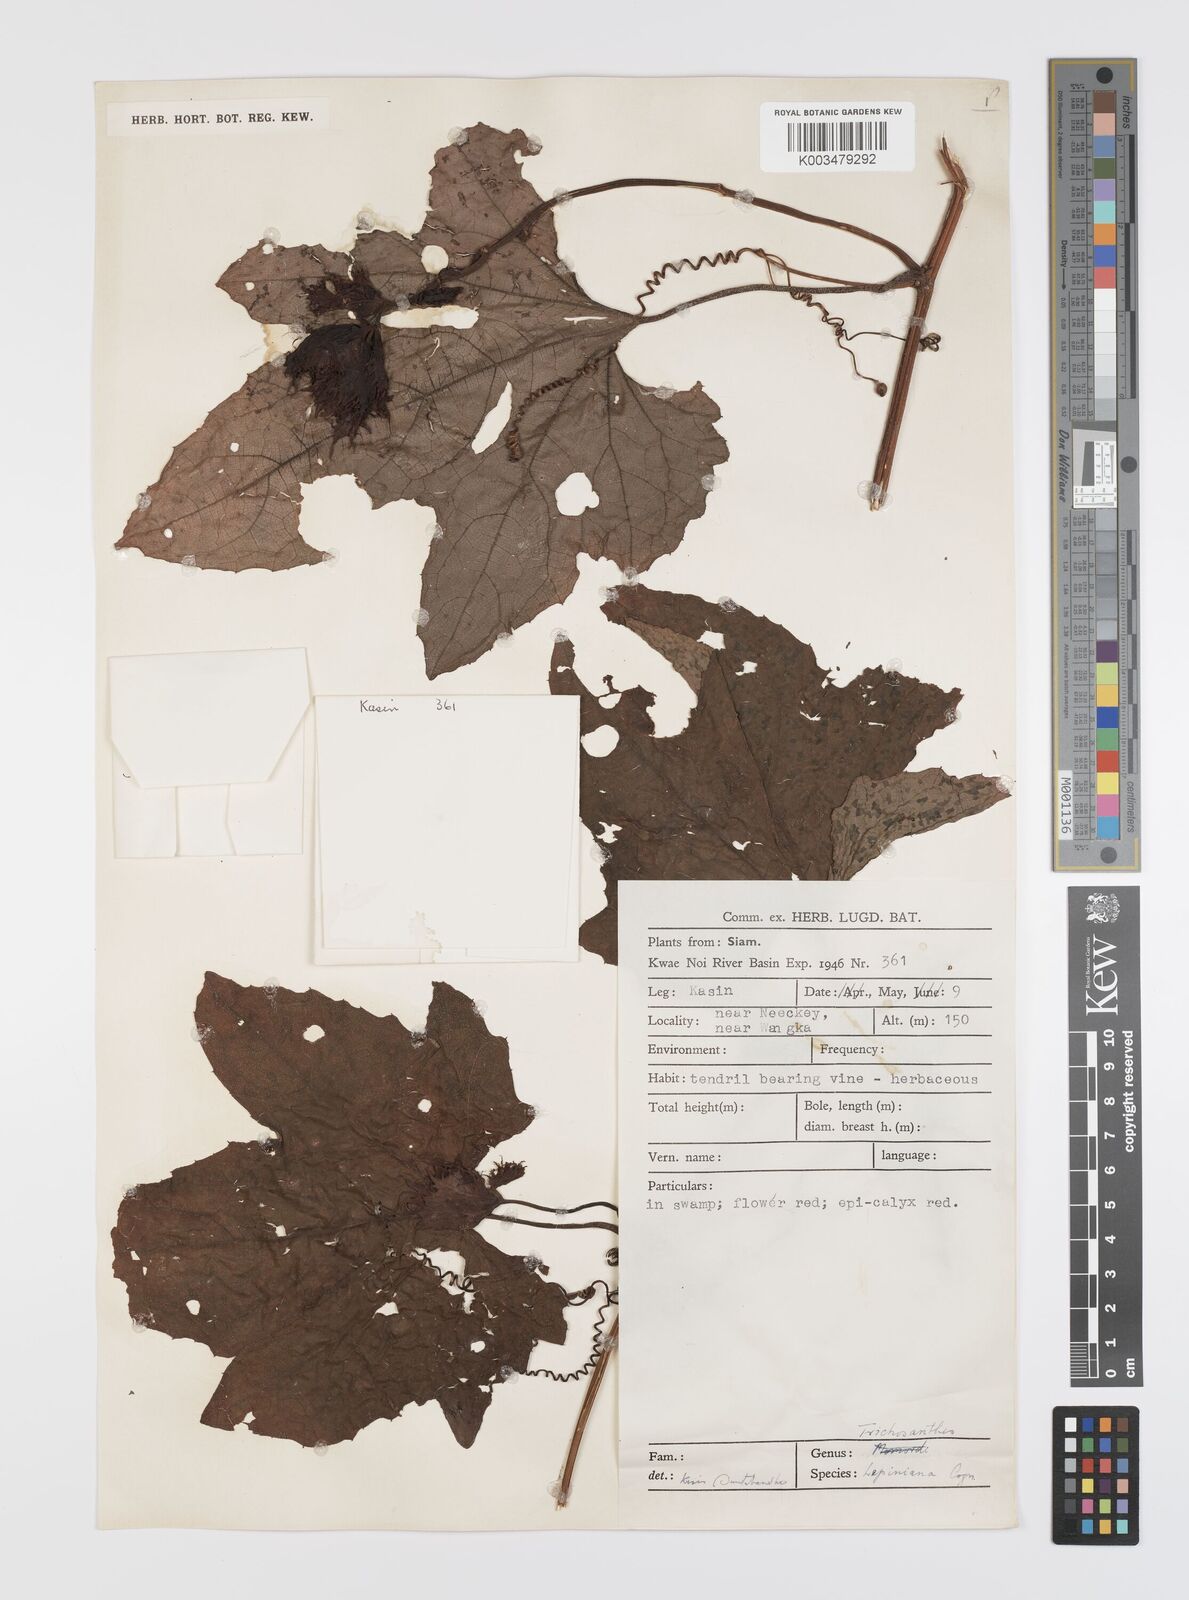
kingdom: Plantae
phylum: Tracheophyta
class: Magnoliopsida
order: Cucurbitales
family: Cucurbitaceae
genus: Trichosanthes
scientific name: Trichosanthes rubriflos
